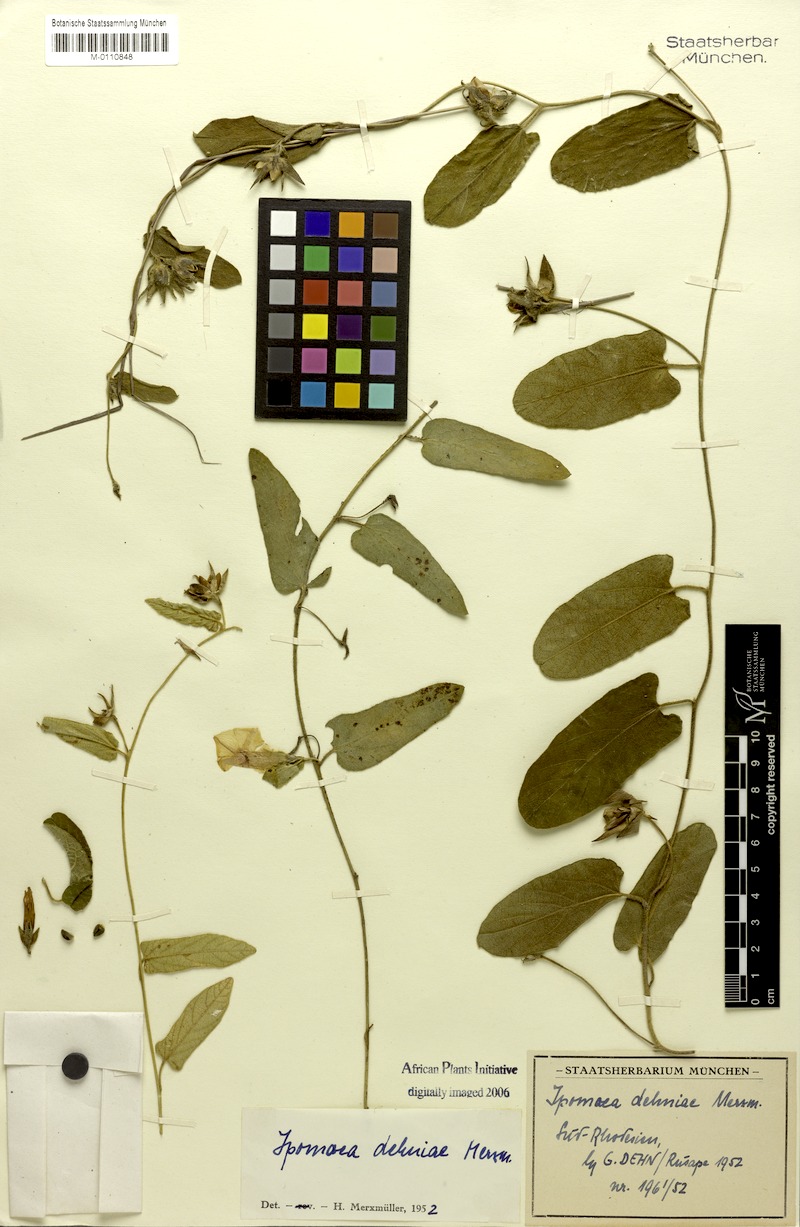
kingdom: Plantae
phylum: Tracheophyta
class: Magnoliopsida
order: Solanales
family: Convolvulaceae
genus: Ipomoea
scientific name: Ipomoea fulvicaulis
